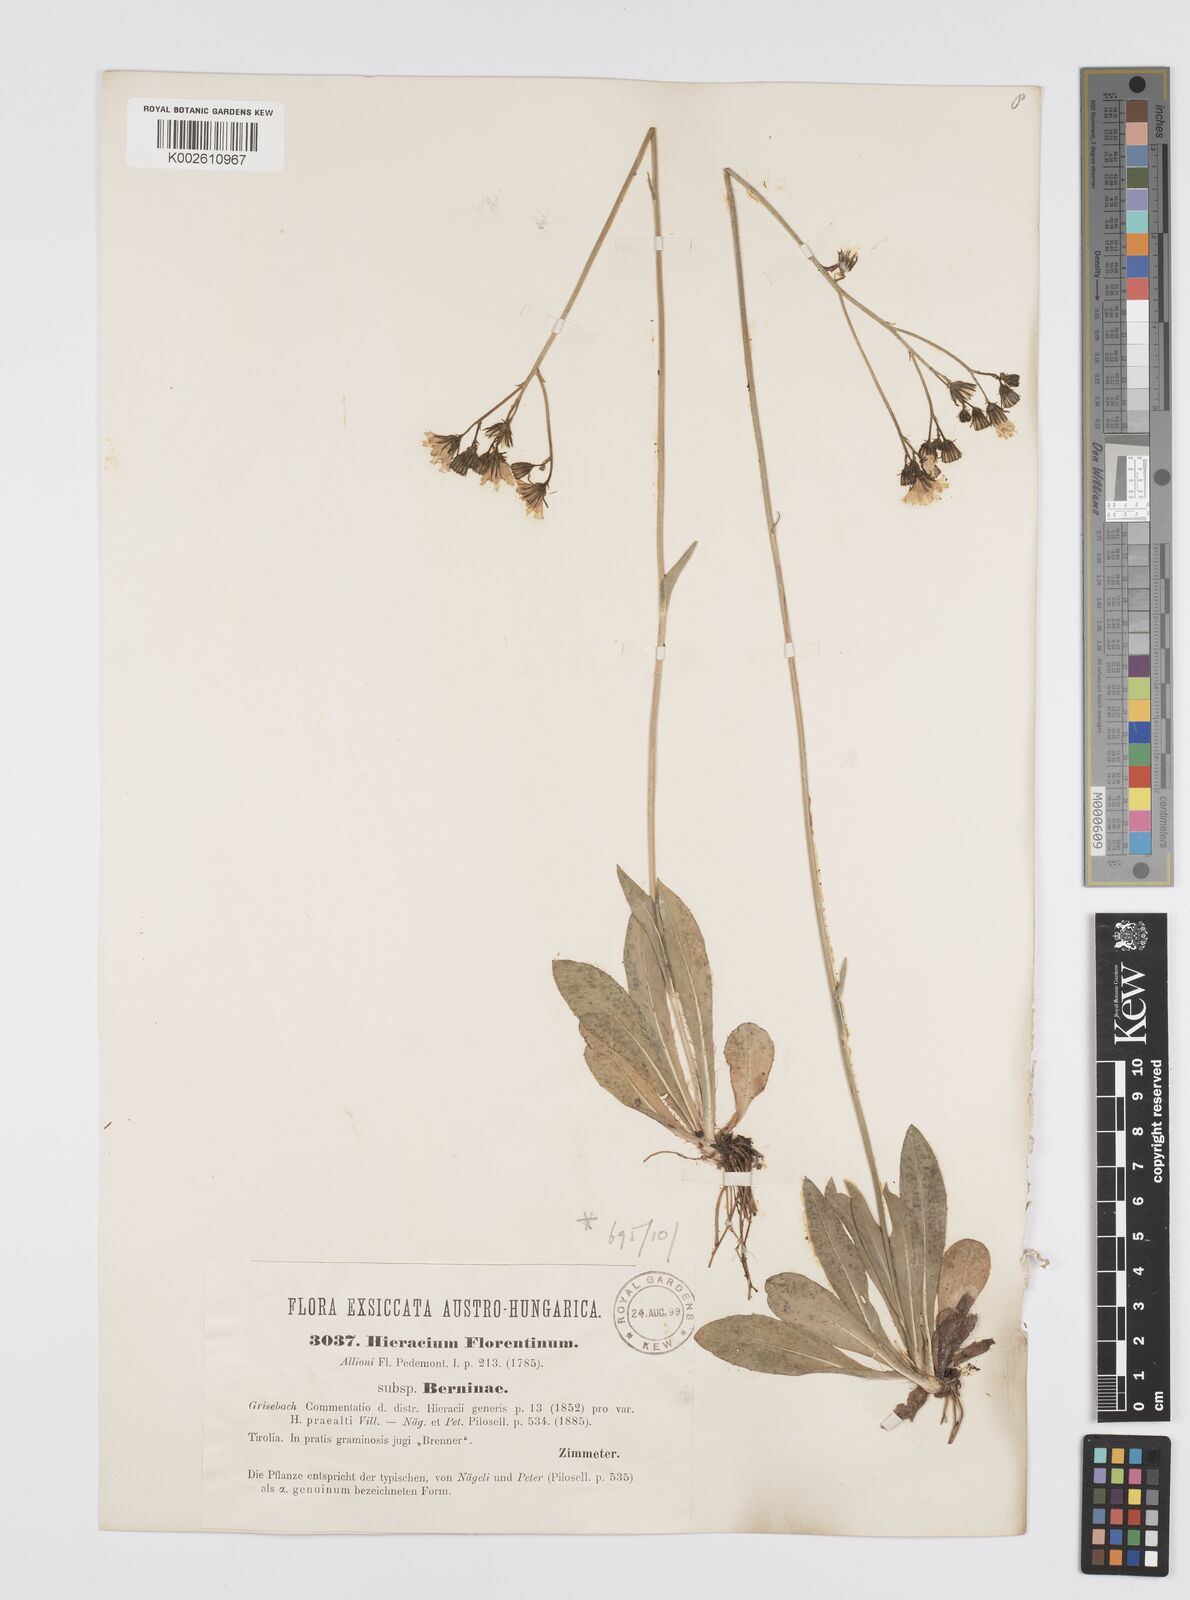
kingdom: Plantae
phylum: Tracheophyta
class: Magnoliopsida
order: Asterales
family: Asteraceae
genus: Pilosella
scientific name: Pilosella piloselloides
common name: Glaucous king-devil
